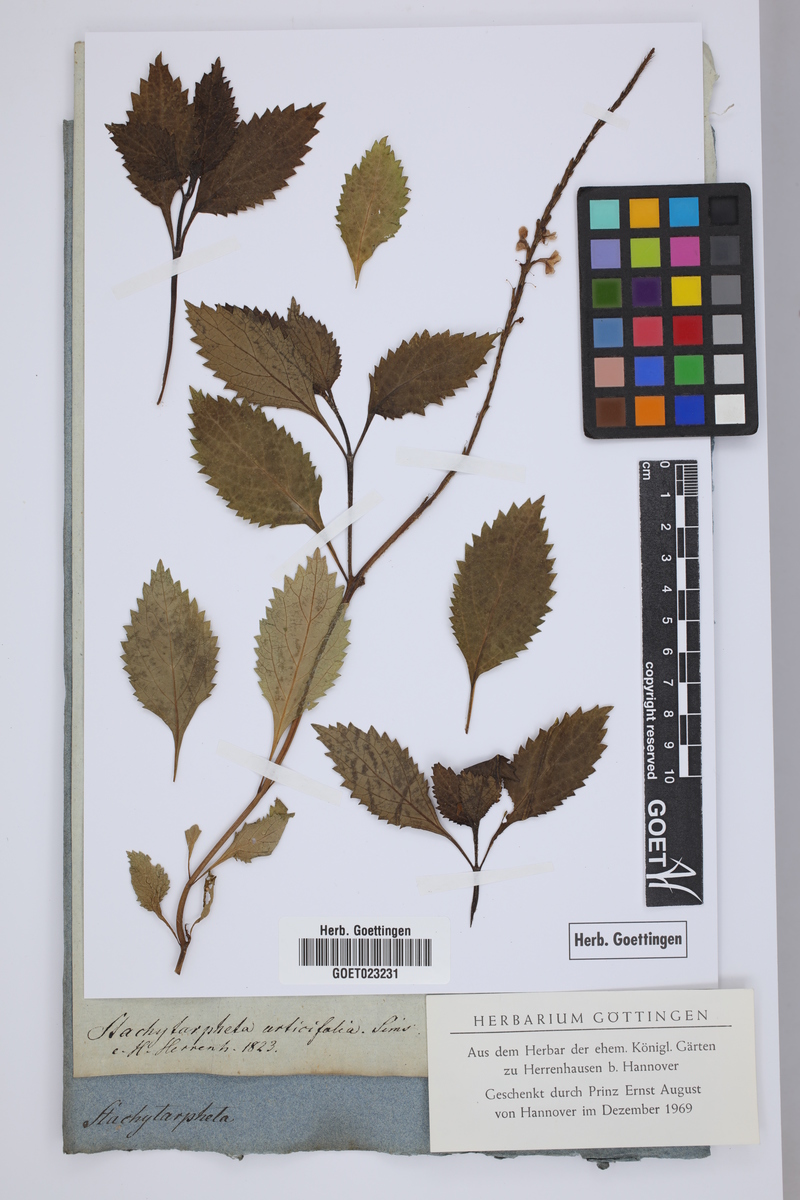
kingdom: Plantae
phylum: Tracheophyta
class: Magnoliopsida
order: Lamiales
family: Verbenaceae
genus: Stachytarpheta
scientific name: Stachytarpheta urticifolia
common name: Nettleleaf velvetberry
